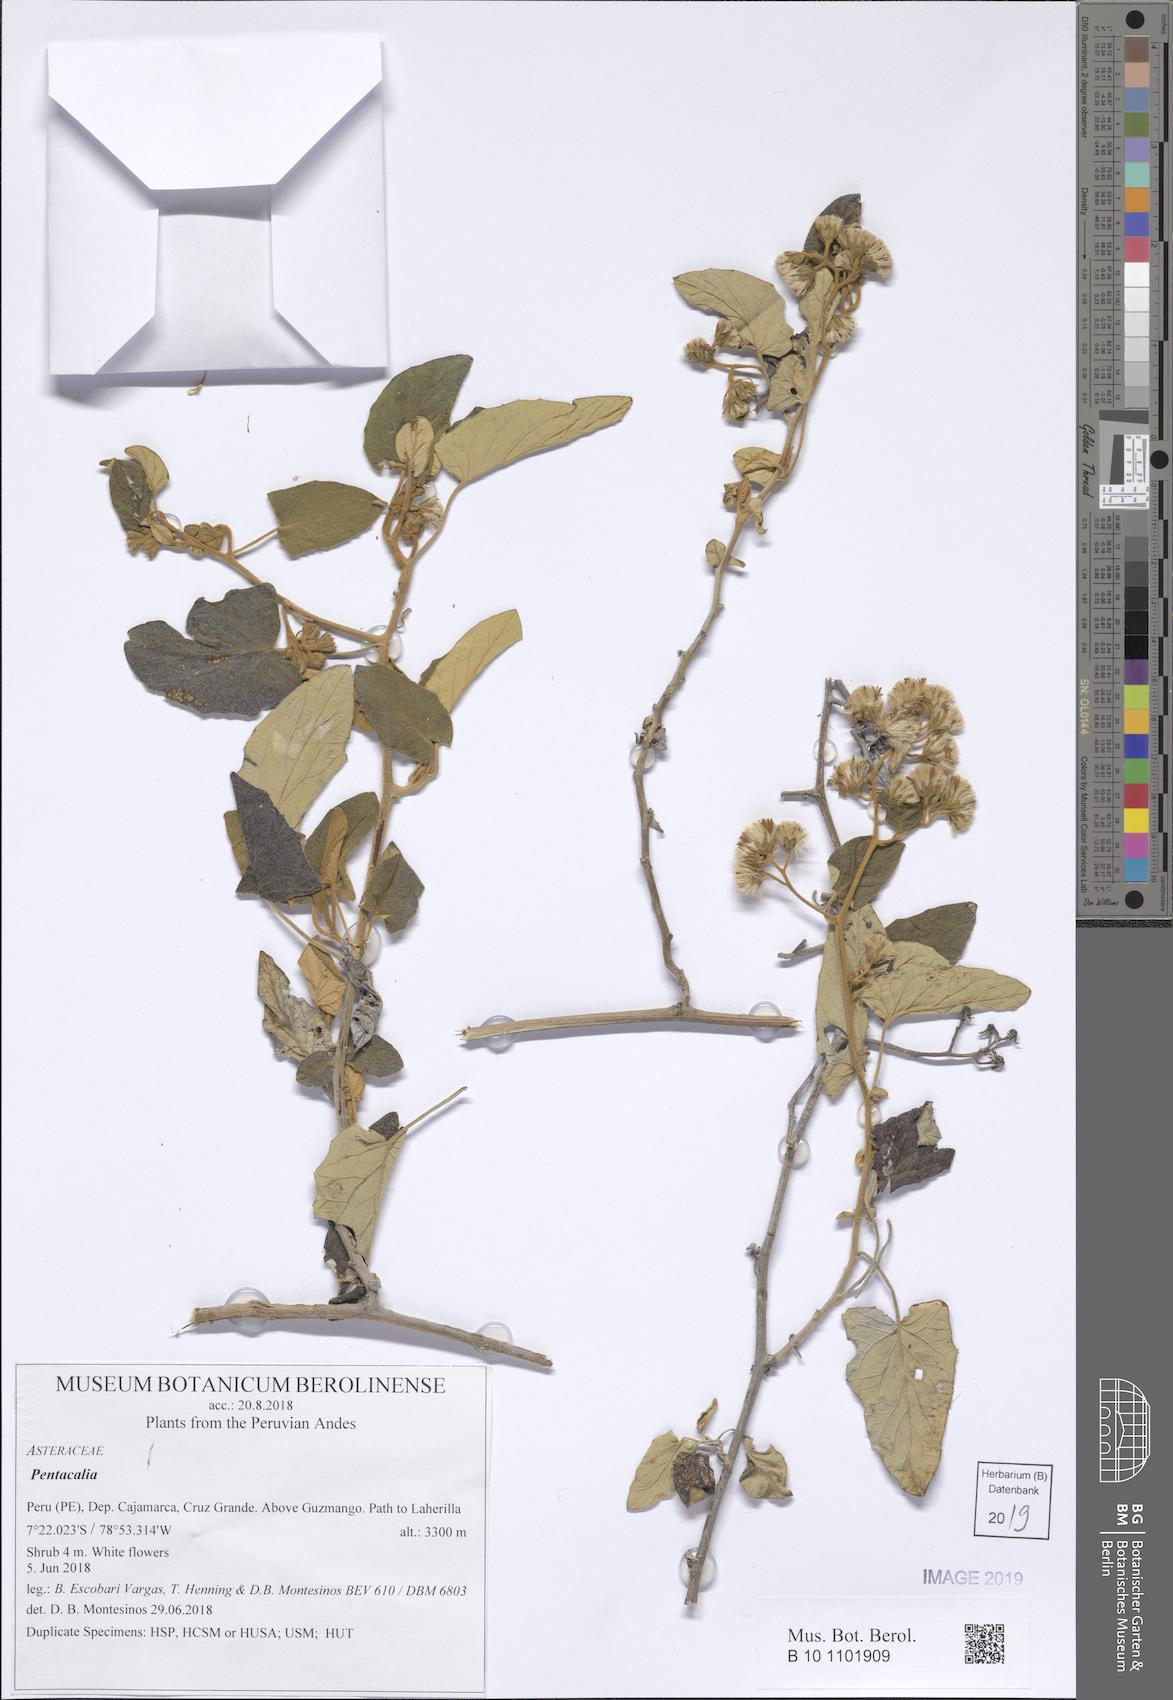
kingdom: Plantae
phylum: Tracheophyta
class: Magnoliopsida
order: Asterales
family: Asteraceae
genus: Pentacalia
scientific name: Pentacalia
